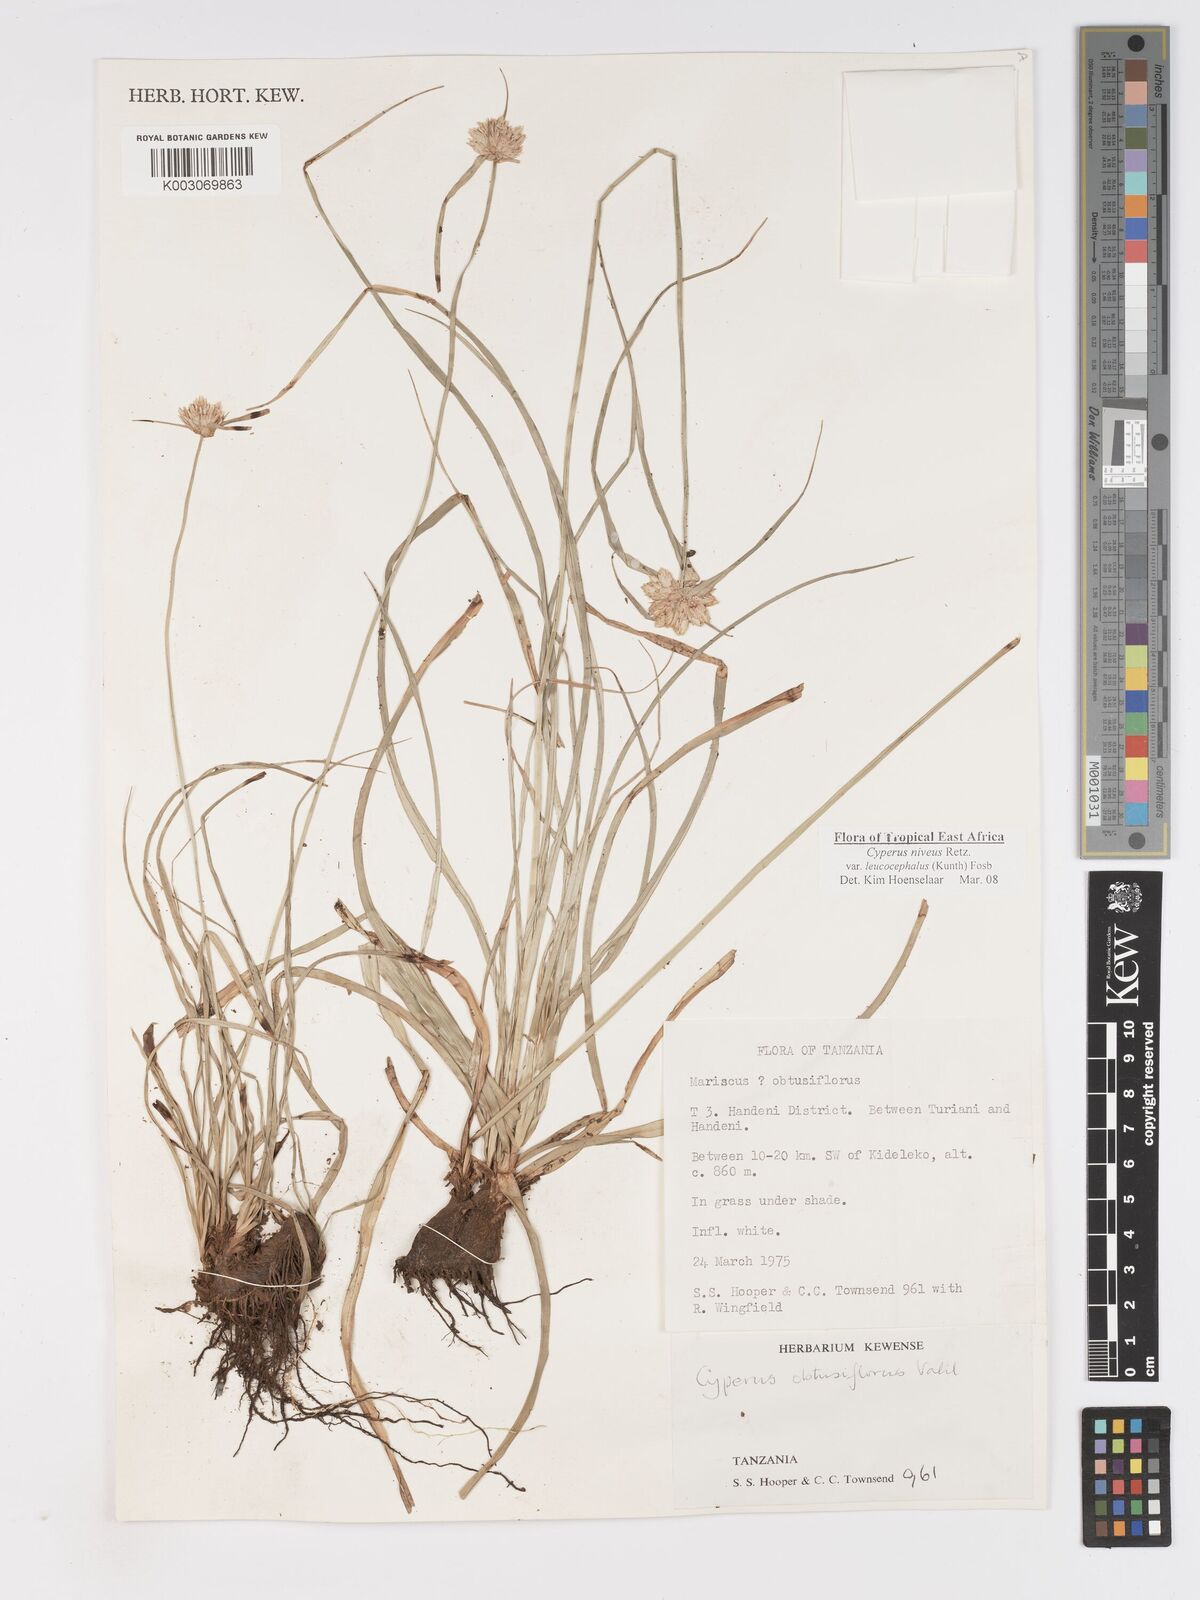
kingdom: Plantae
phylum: Tracheophyta
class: Liliopsida
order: Poales
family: Cyperaceae
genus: Cyperus
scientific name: Cyperus niveus
